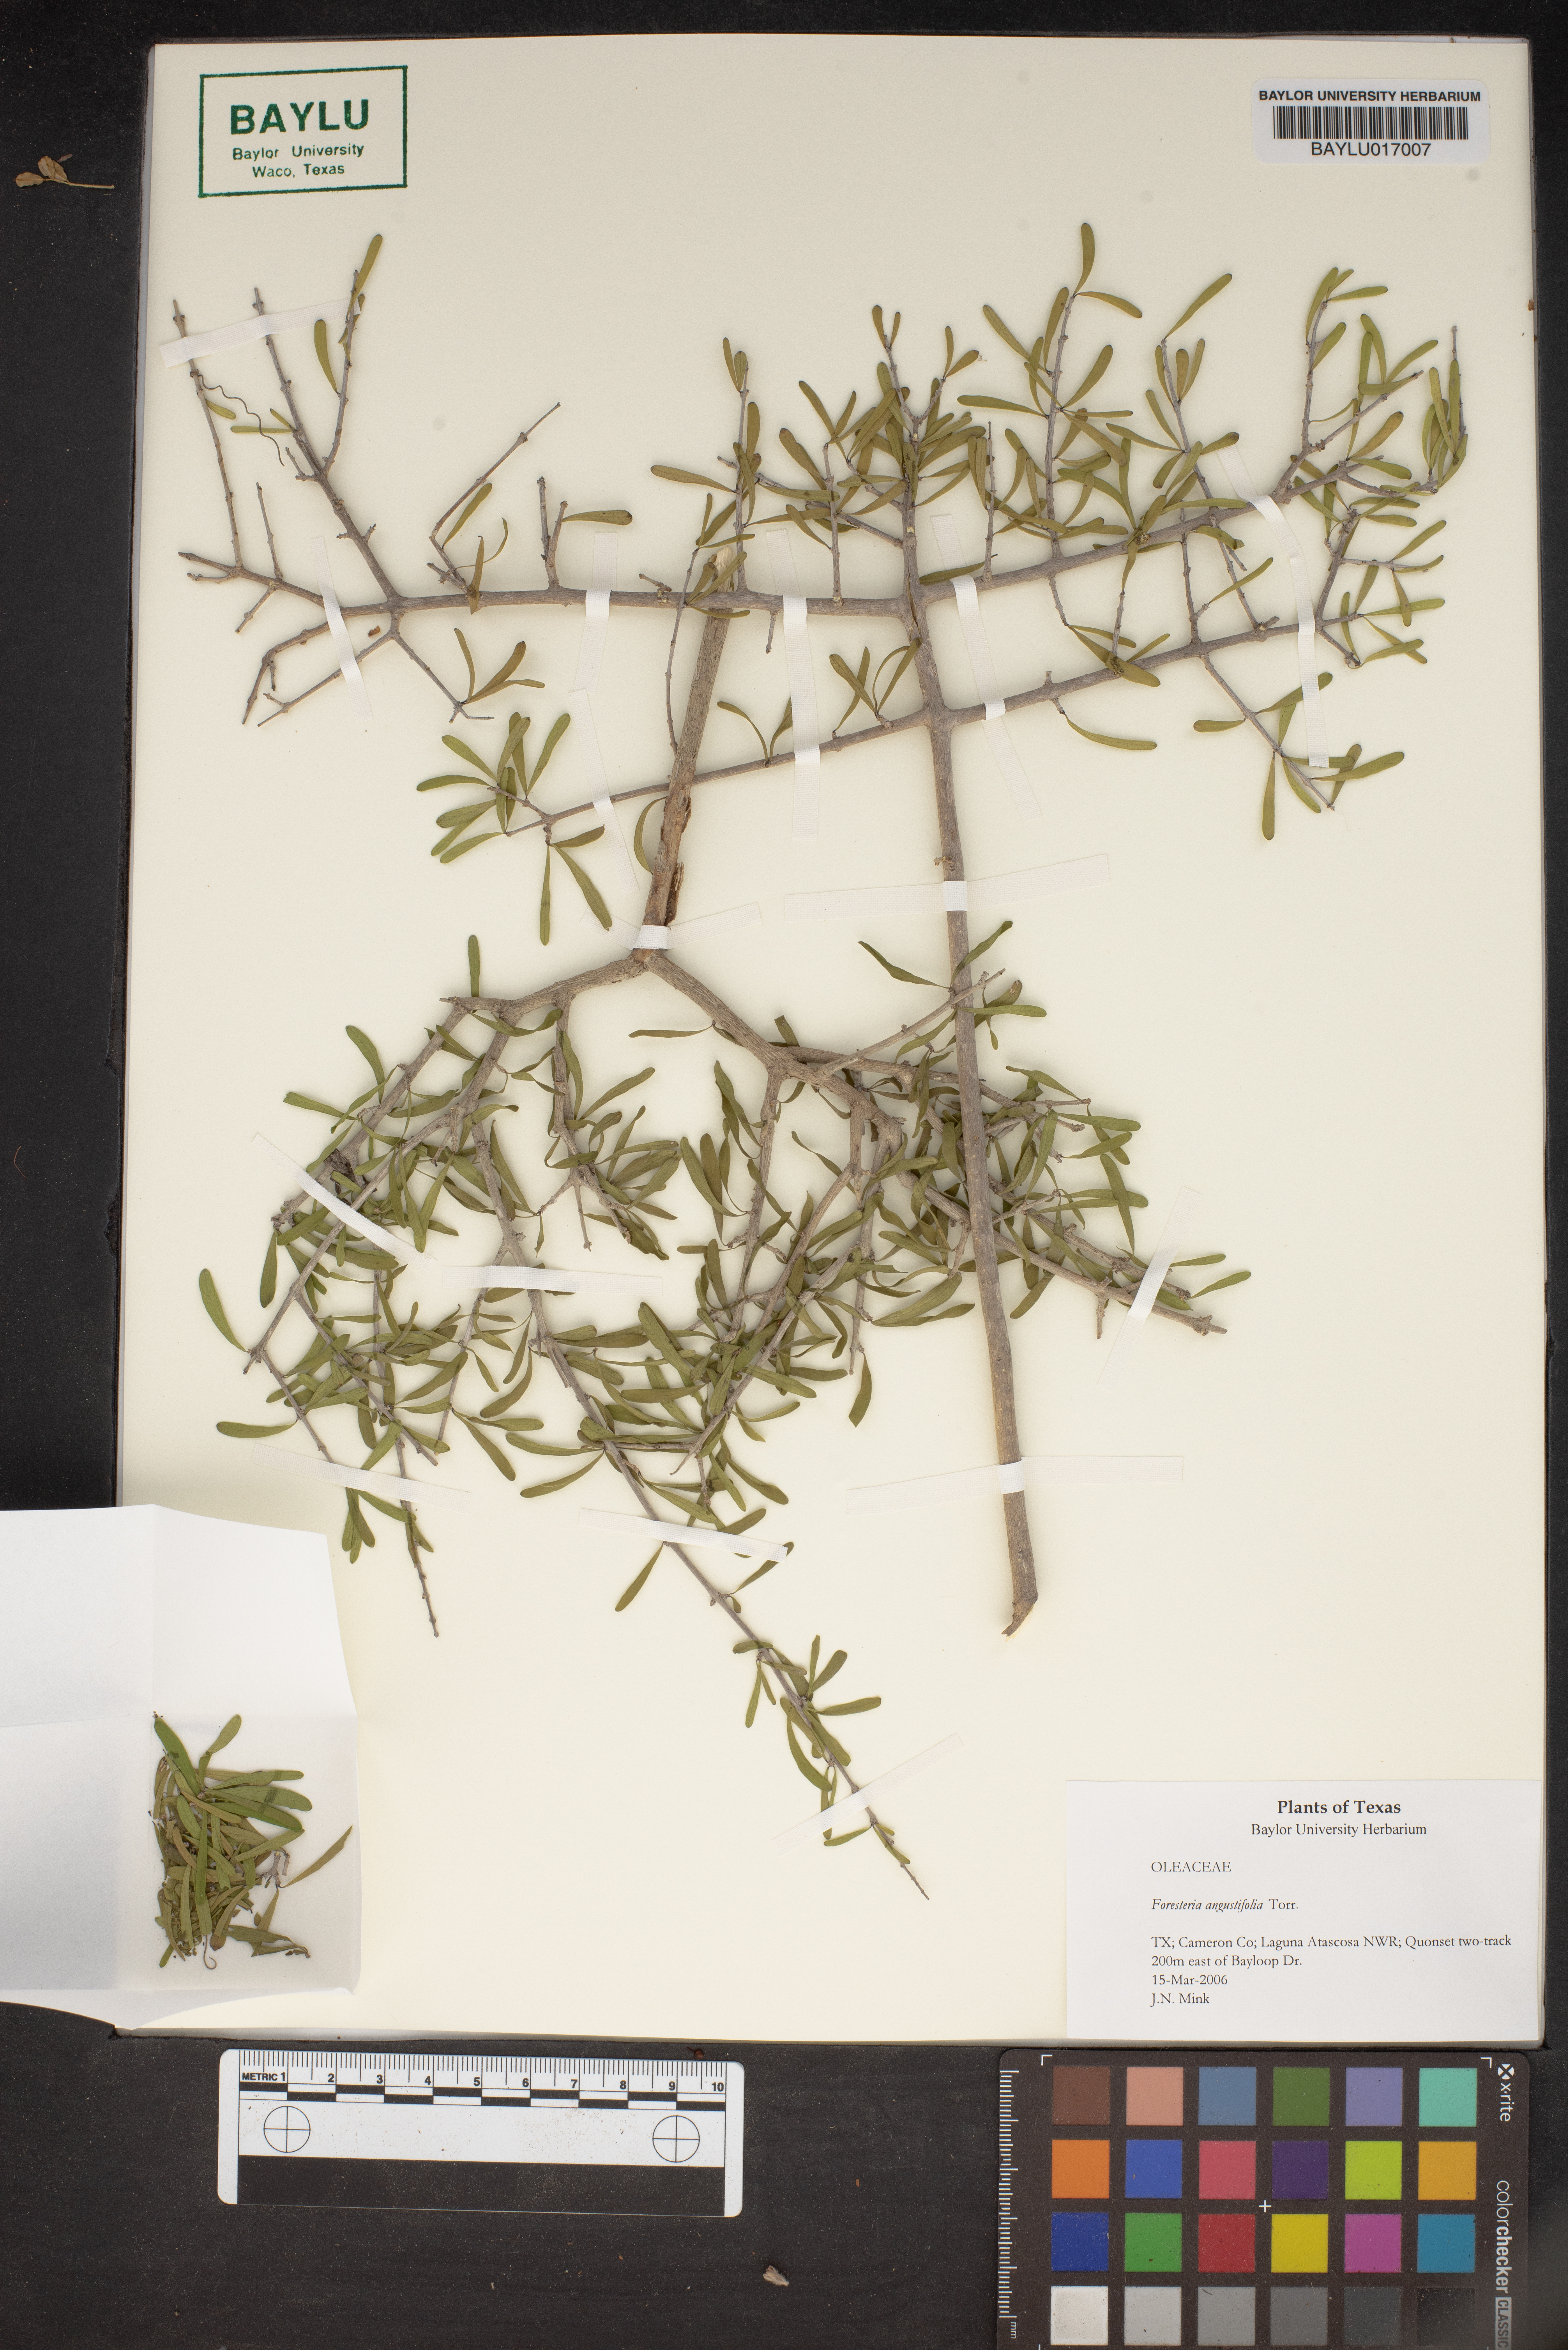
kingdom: Plantae
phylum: Tracheophyta
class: Magnoliopsida
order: Lamiales
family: Oleaceae
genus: Forestiera
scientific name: Forestiera angustifolia
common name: Elbowbush
